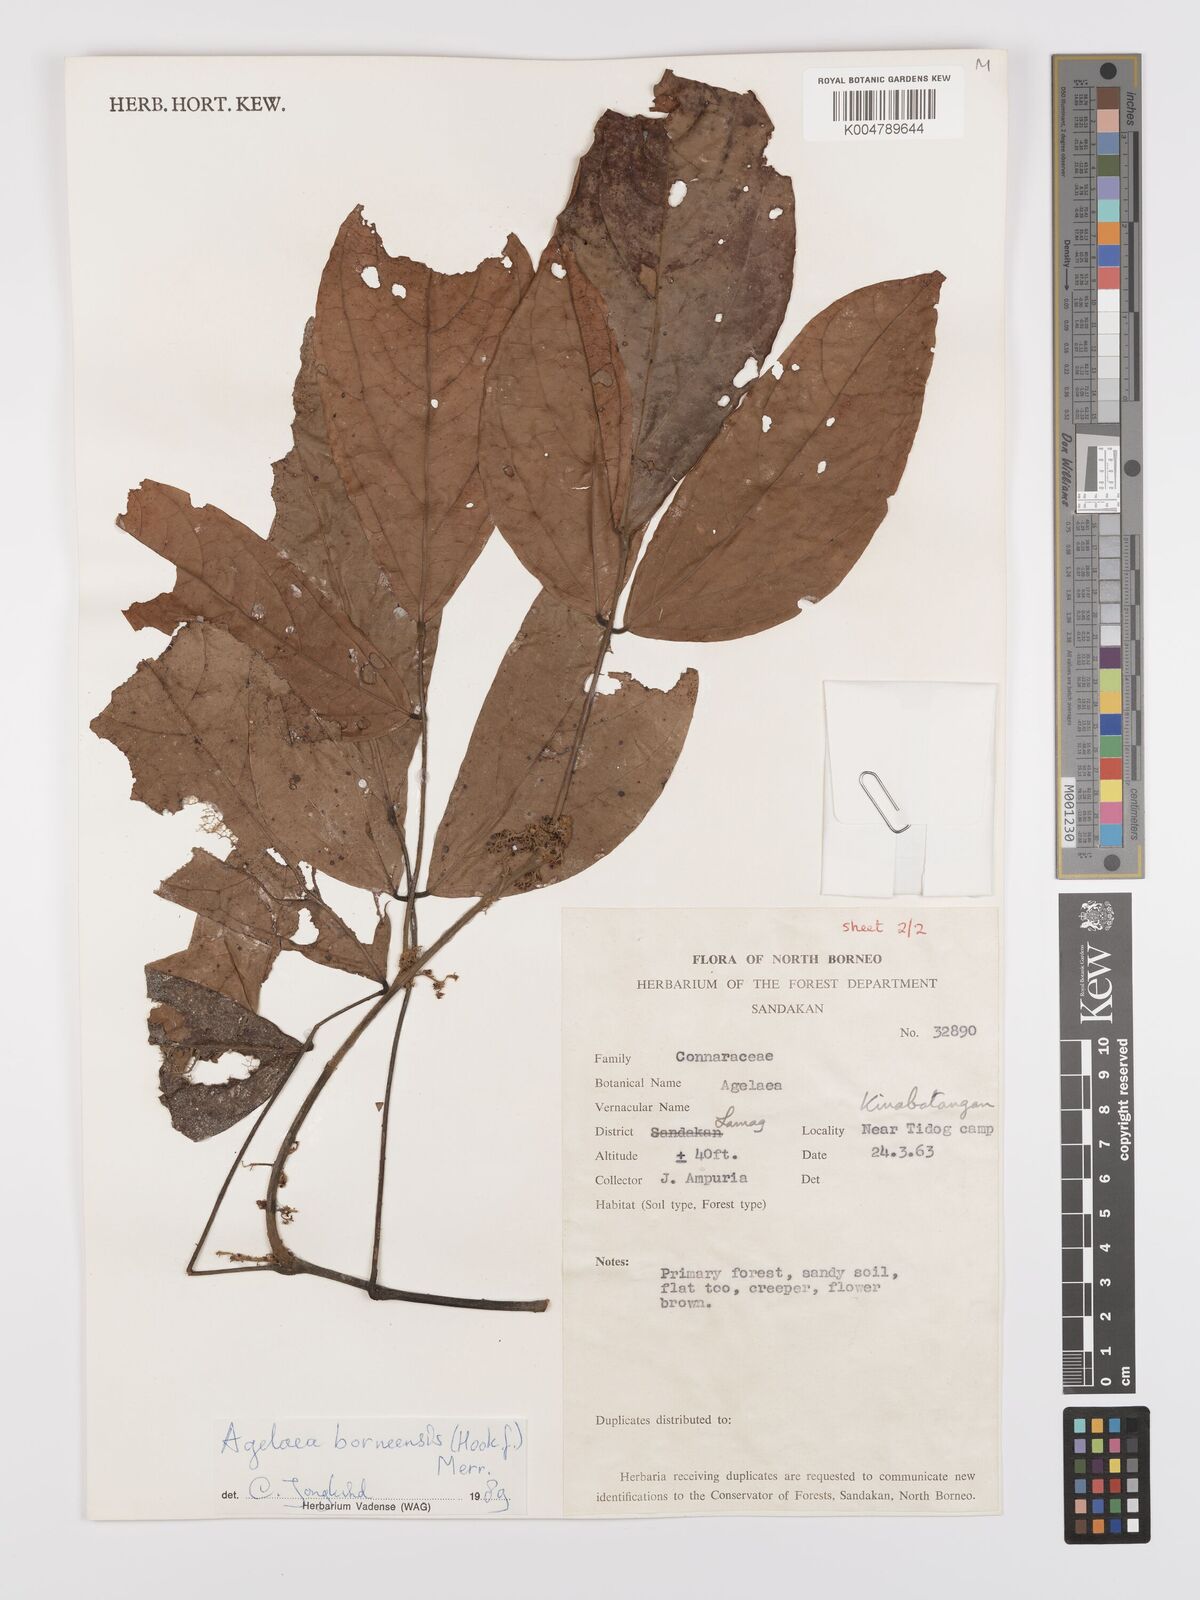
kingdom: Plantae
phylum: Tracheophyta
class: Magnoliopsida
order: Oxalidales
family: Connaraceae
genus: Agelaea
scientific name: Agelaea borneensis
